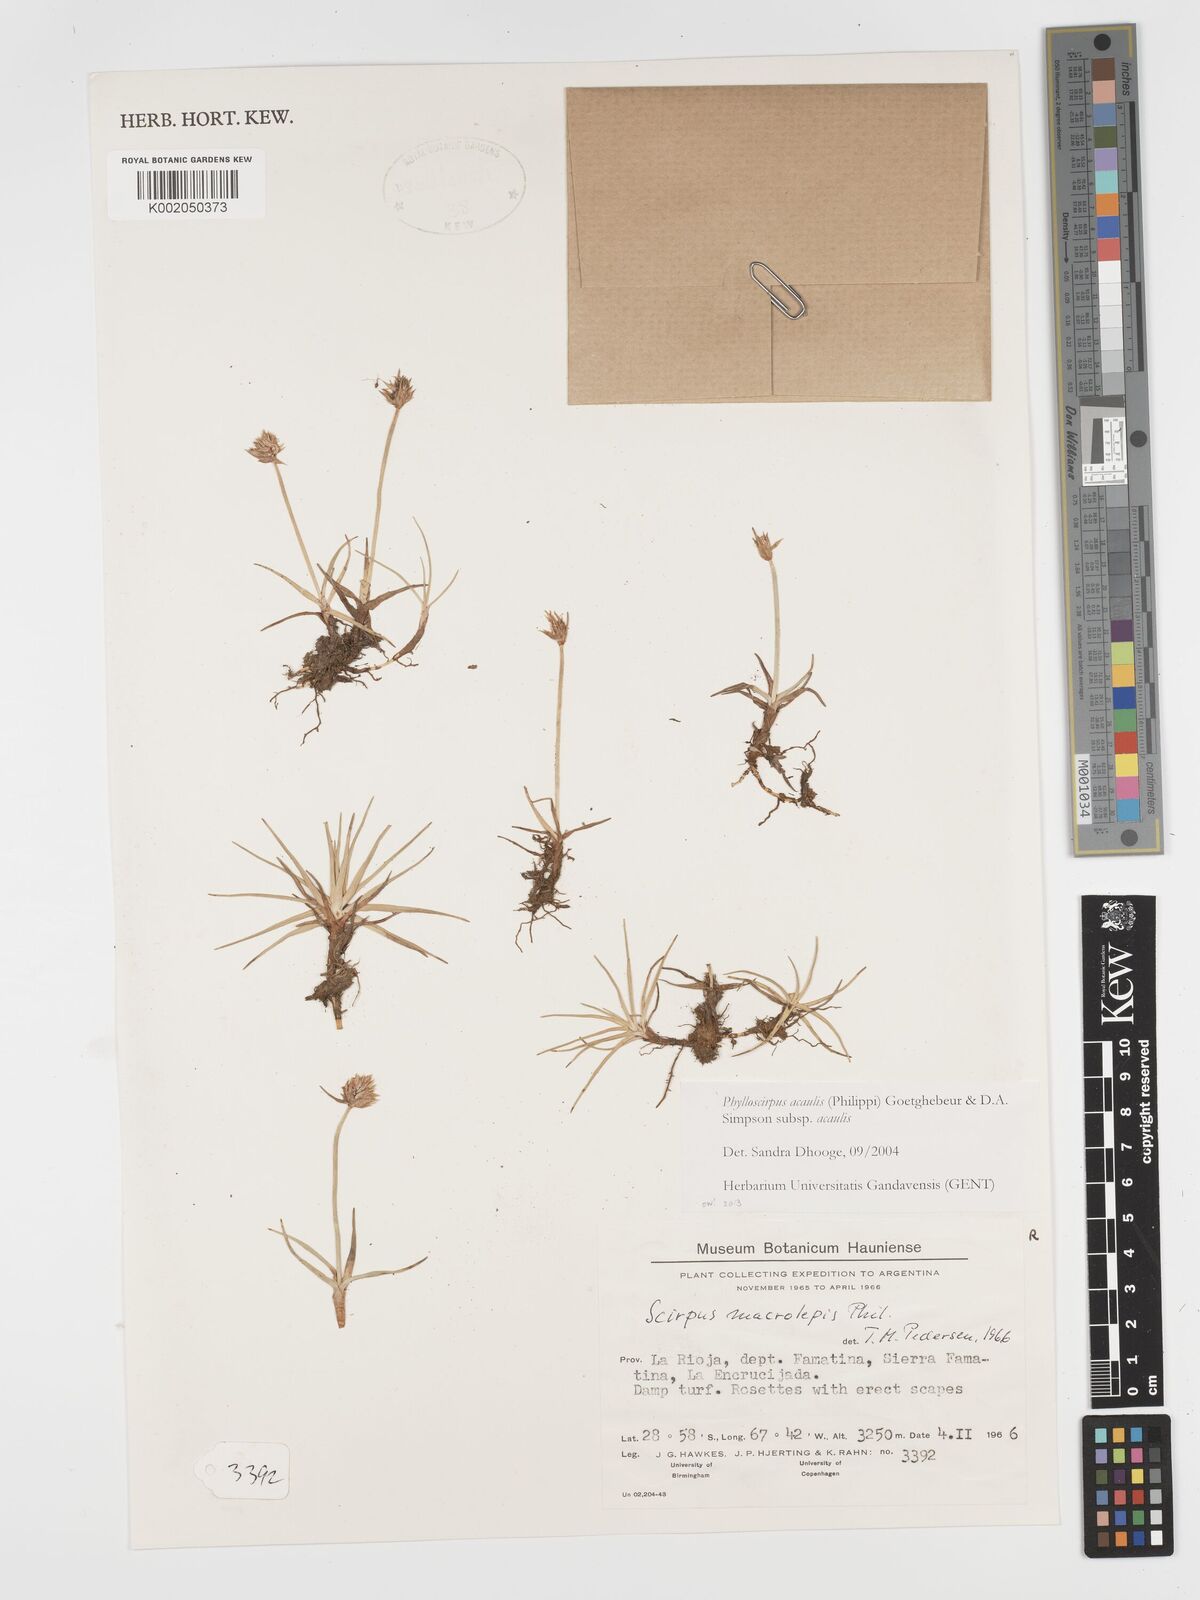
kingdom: Plantae
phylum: Tracheophyta
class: Liliopsida
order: Poales
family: Cyperaceae
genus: Phylloscirpus
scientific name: Phylloscirpus acaulis
